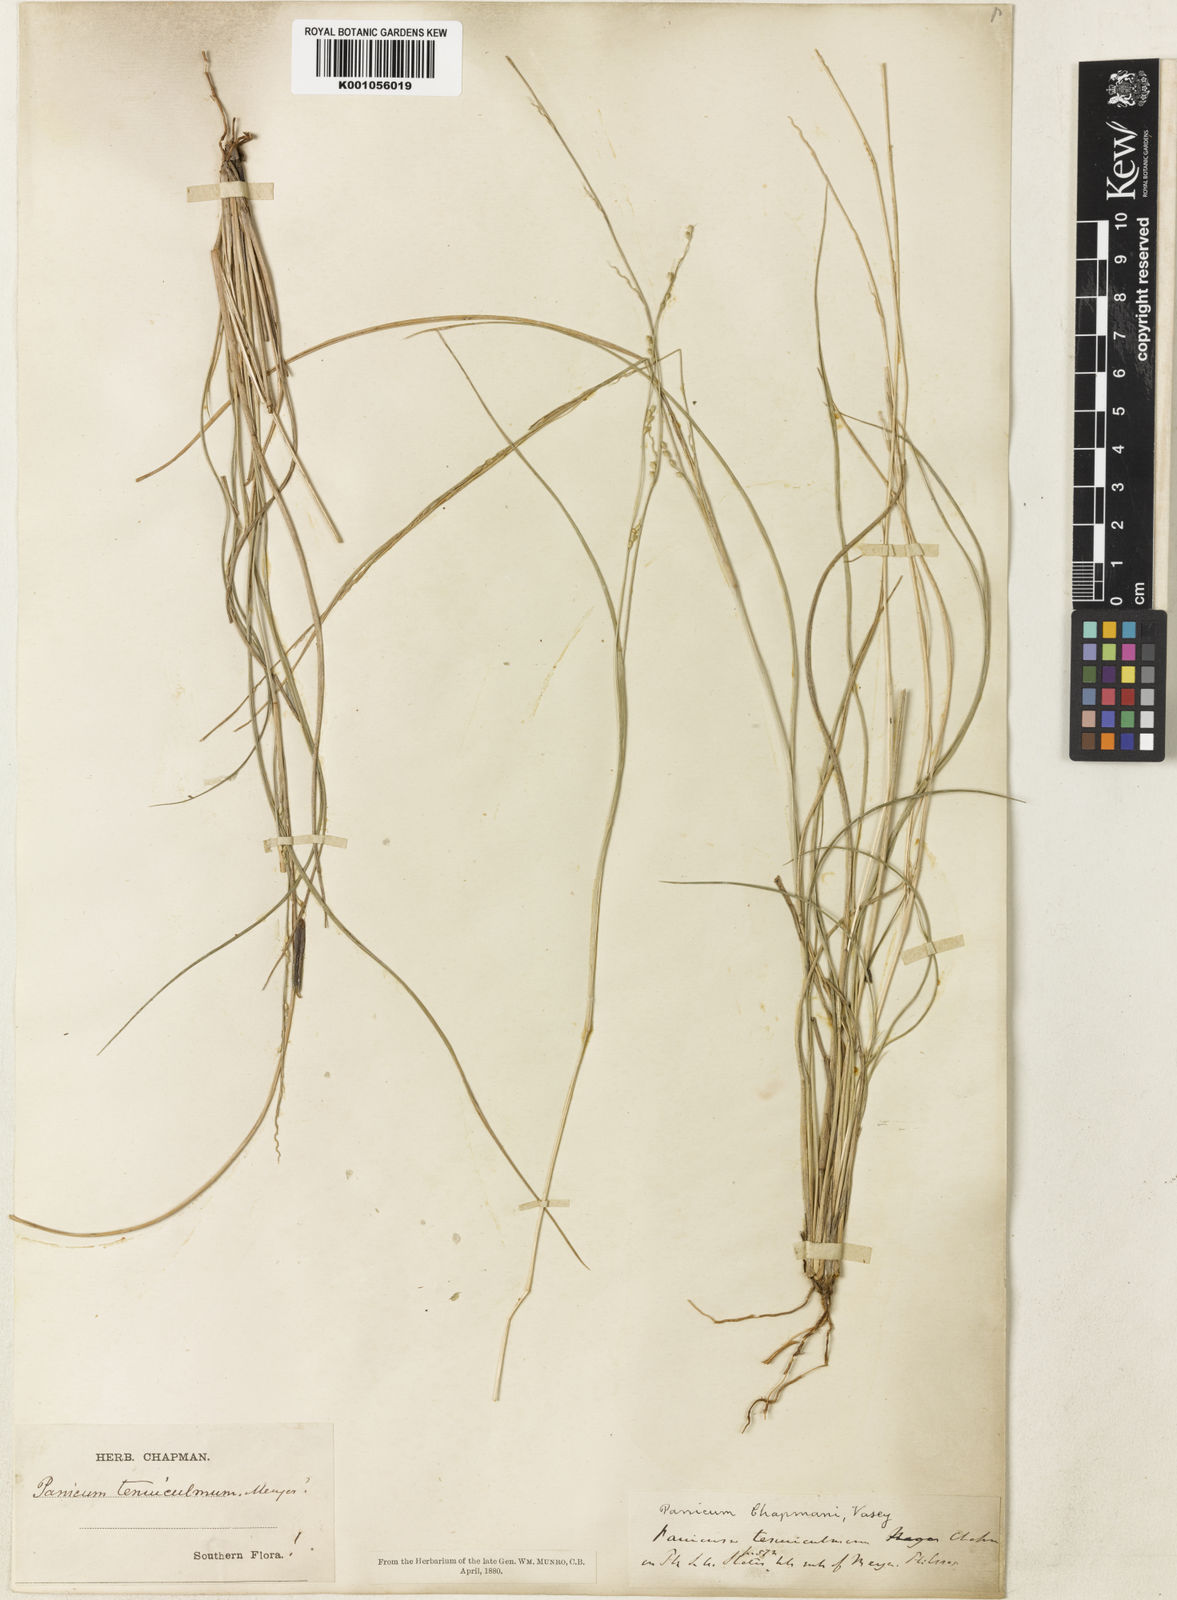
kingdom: Plantae
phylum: Tracheophyta
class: Liliopsida
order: Poales
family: Poaceae
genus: Setaria
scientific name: Setaria chapmanii
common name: Chapman's bristle grass
